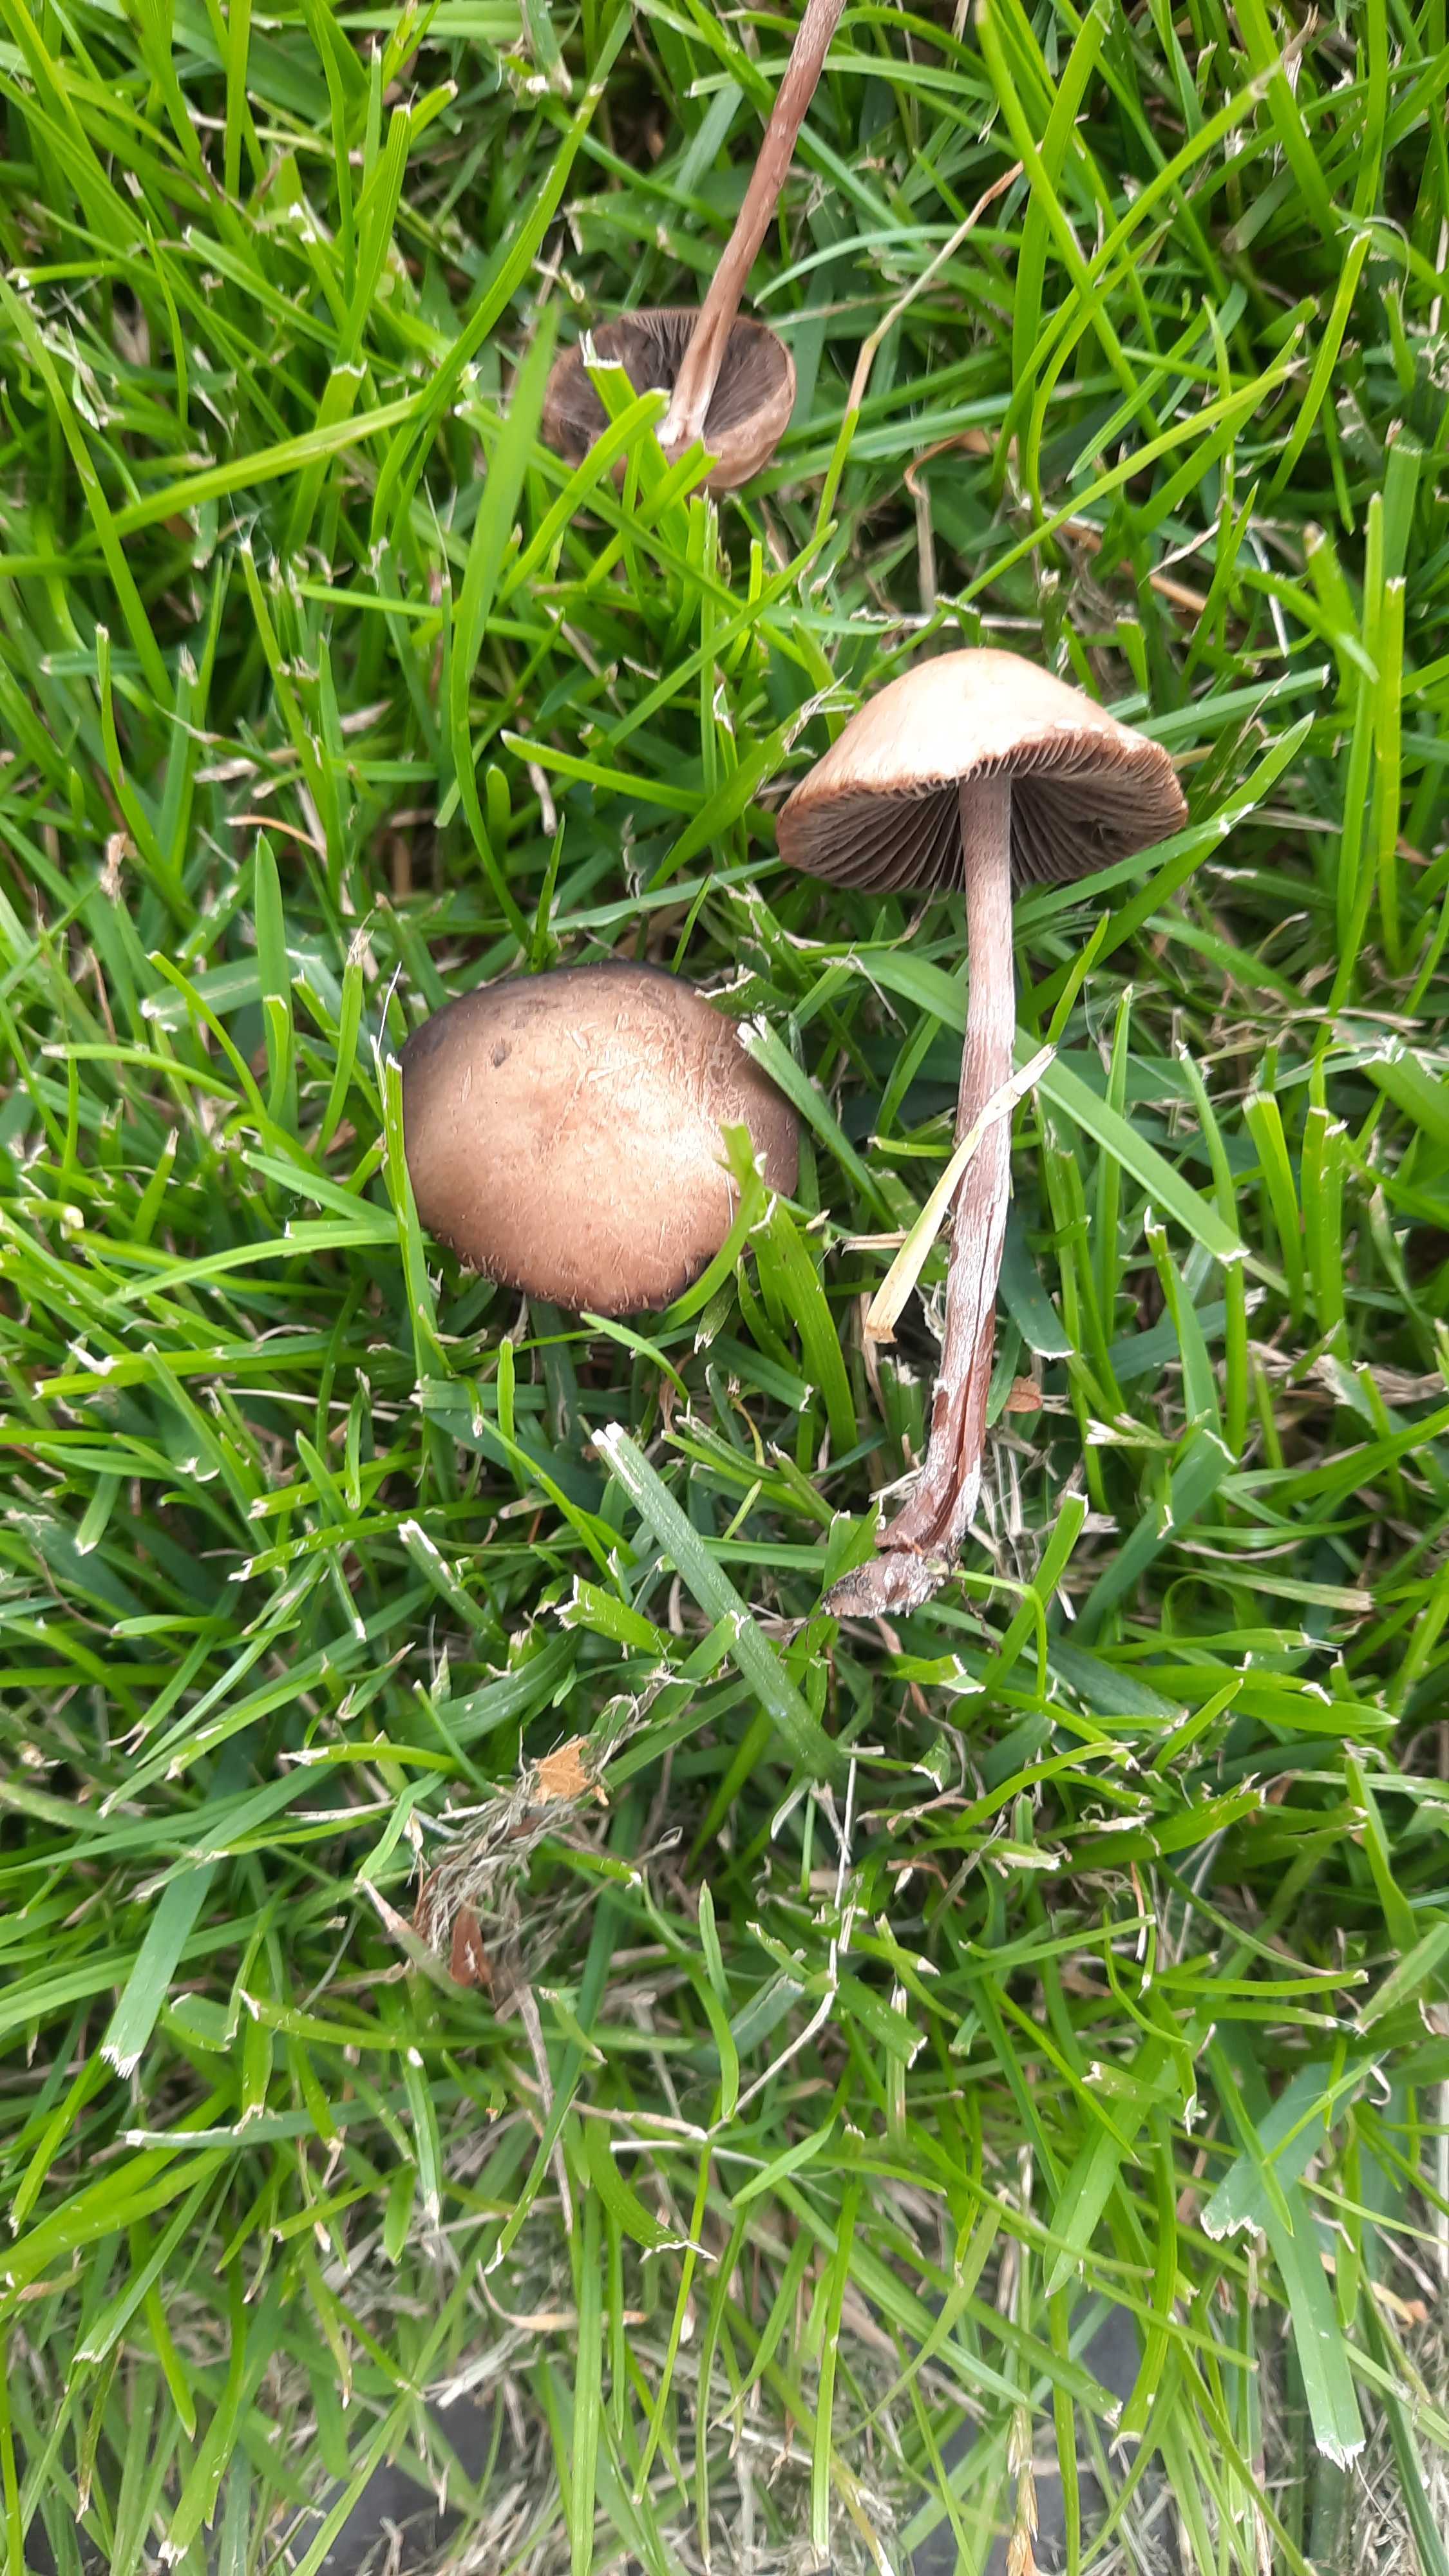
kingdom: Fungi
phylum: Basidiomycota
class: Agaricomycetes
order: Agaricales
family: Bolbitiaceae
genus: Panaeolina
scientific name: Panaeolina foenisecii
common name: høslætsvamp
